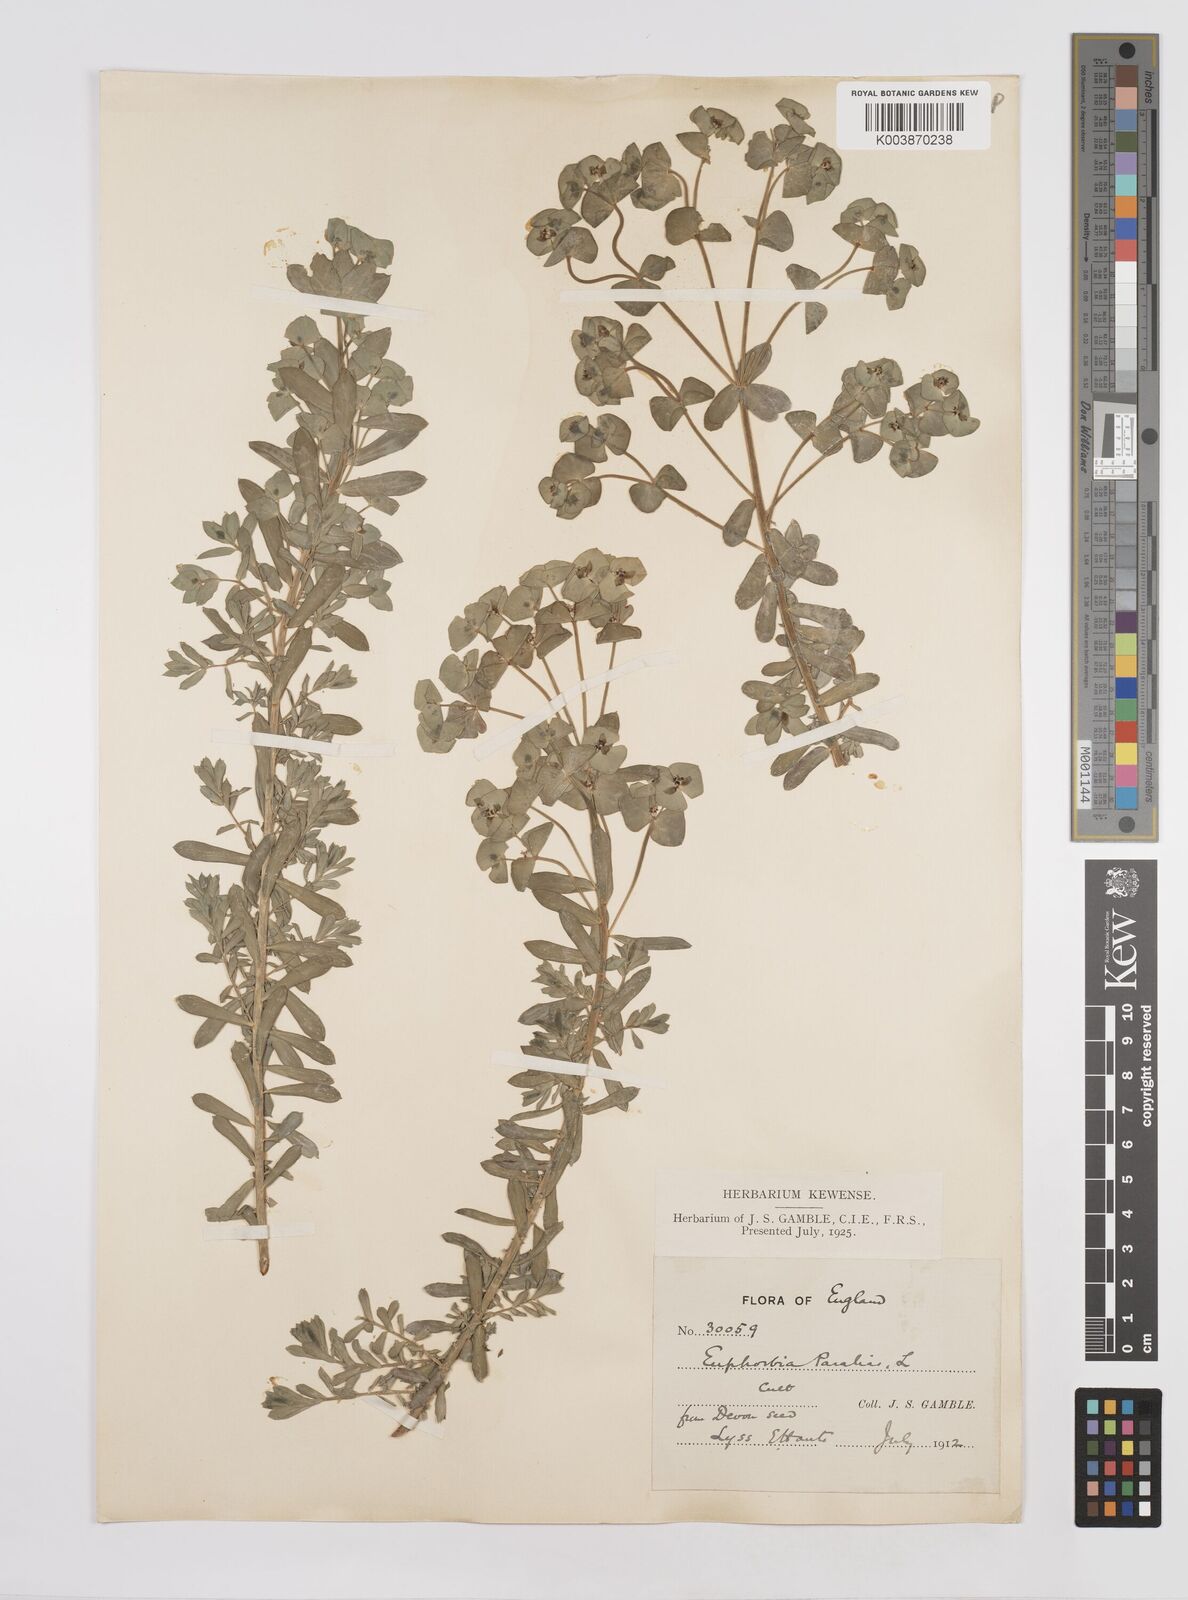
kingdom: Plantae
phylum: Tracheophyta
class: Magnoliopsida
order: Malpighiales
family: Euphorbiaceae
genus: Euphorbia
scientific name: Euphorbia paralias
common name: Sea spurge
